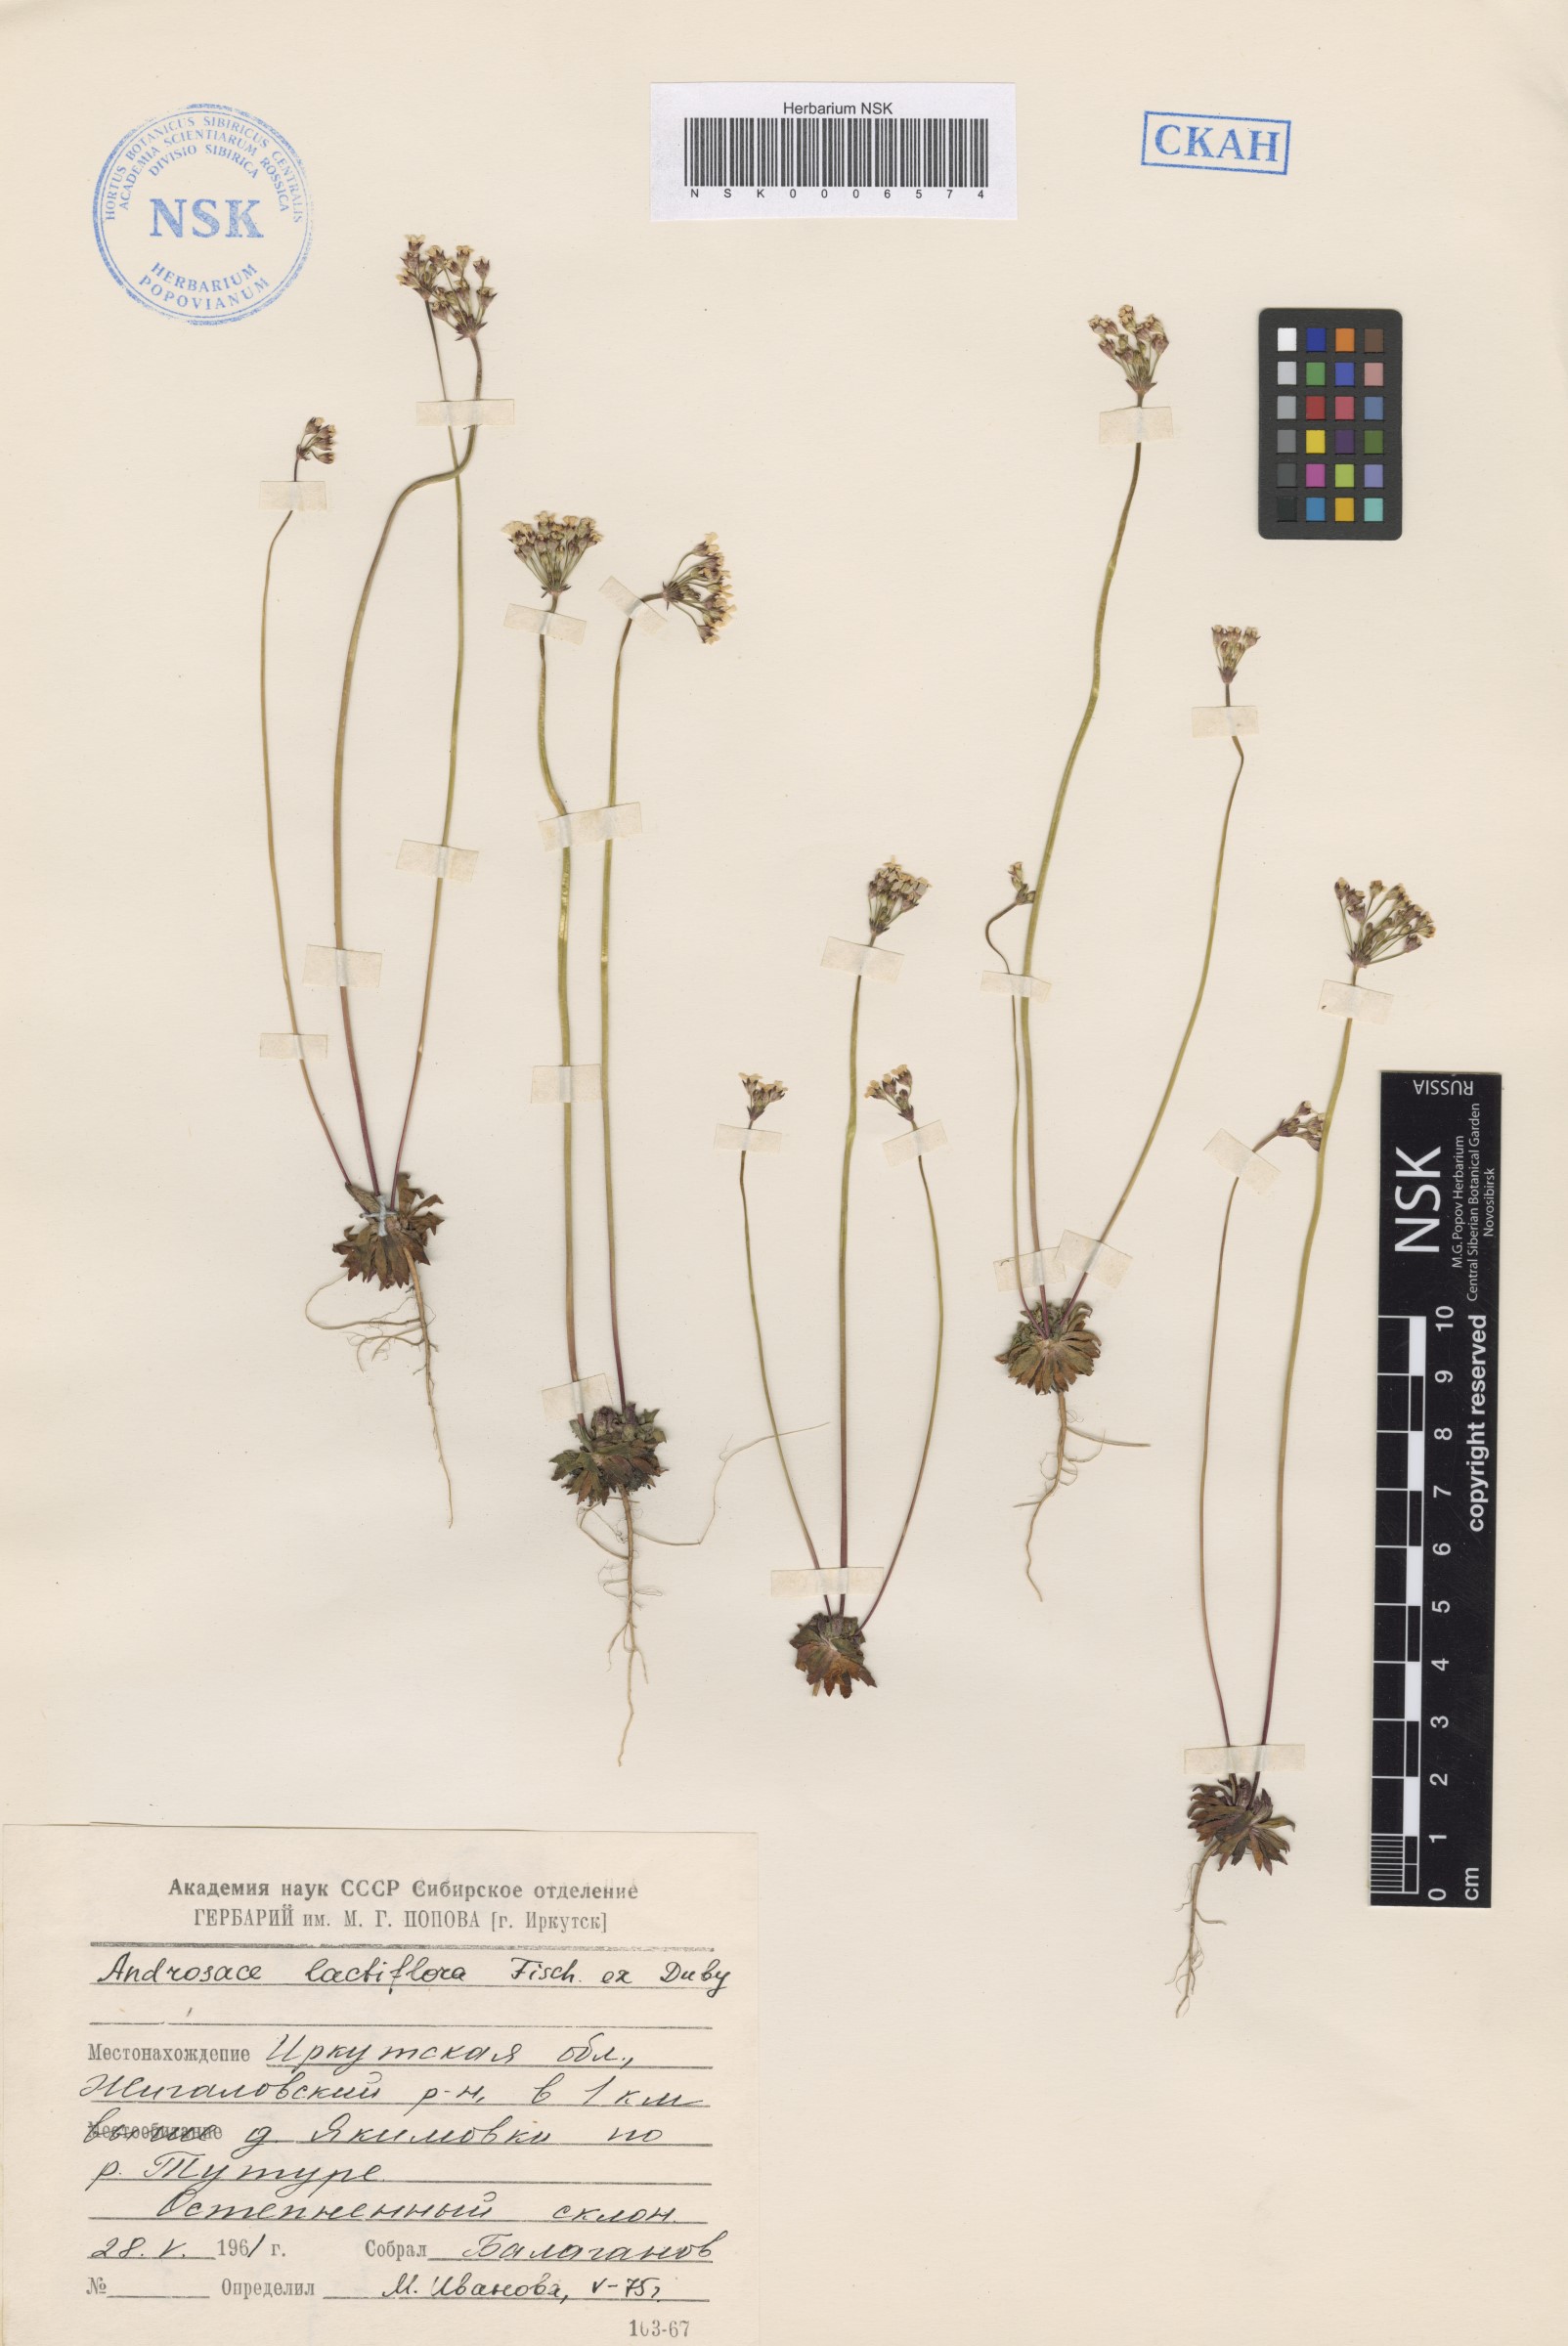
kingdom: Plantae
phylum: Tracheophyta
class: Magnoliopsida
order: Ericales
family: Primulaceae
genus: Androsace
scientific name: Androsace lactiflora
